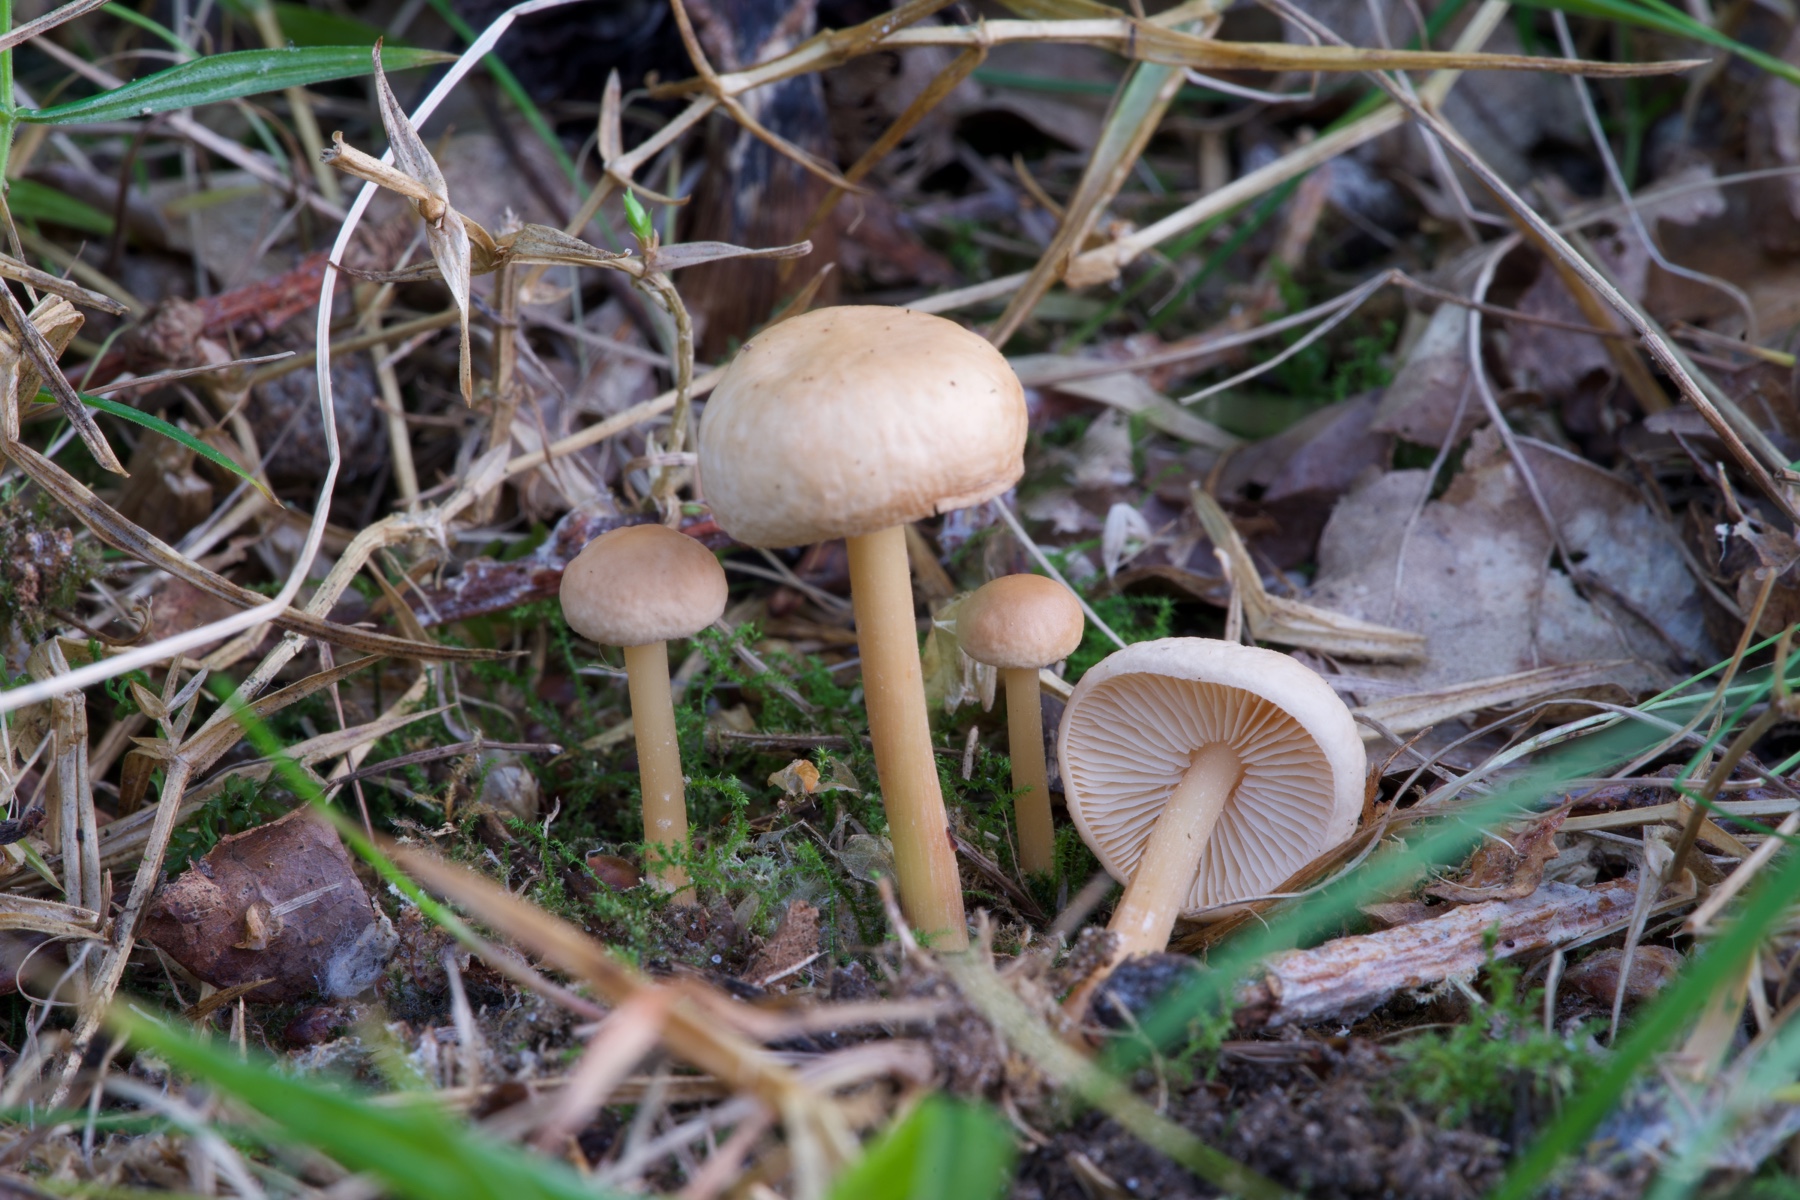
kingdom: Fungi
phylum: Basidiomycota
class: Agaricomycetes
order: Agaricales
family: Omphalotaceae
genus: Gymnopus
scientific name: Gymnopus dryophilus
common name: løv-fladhat
